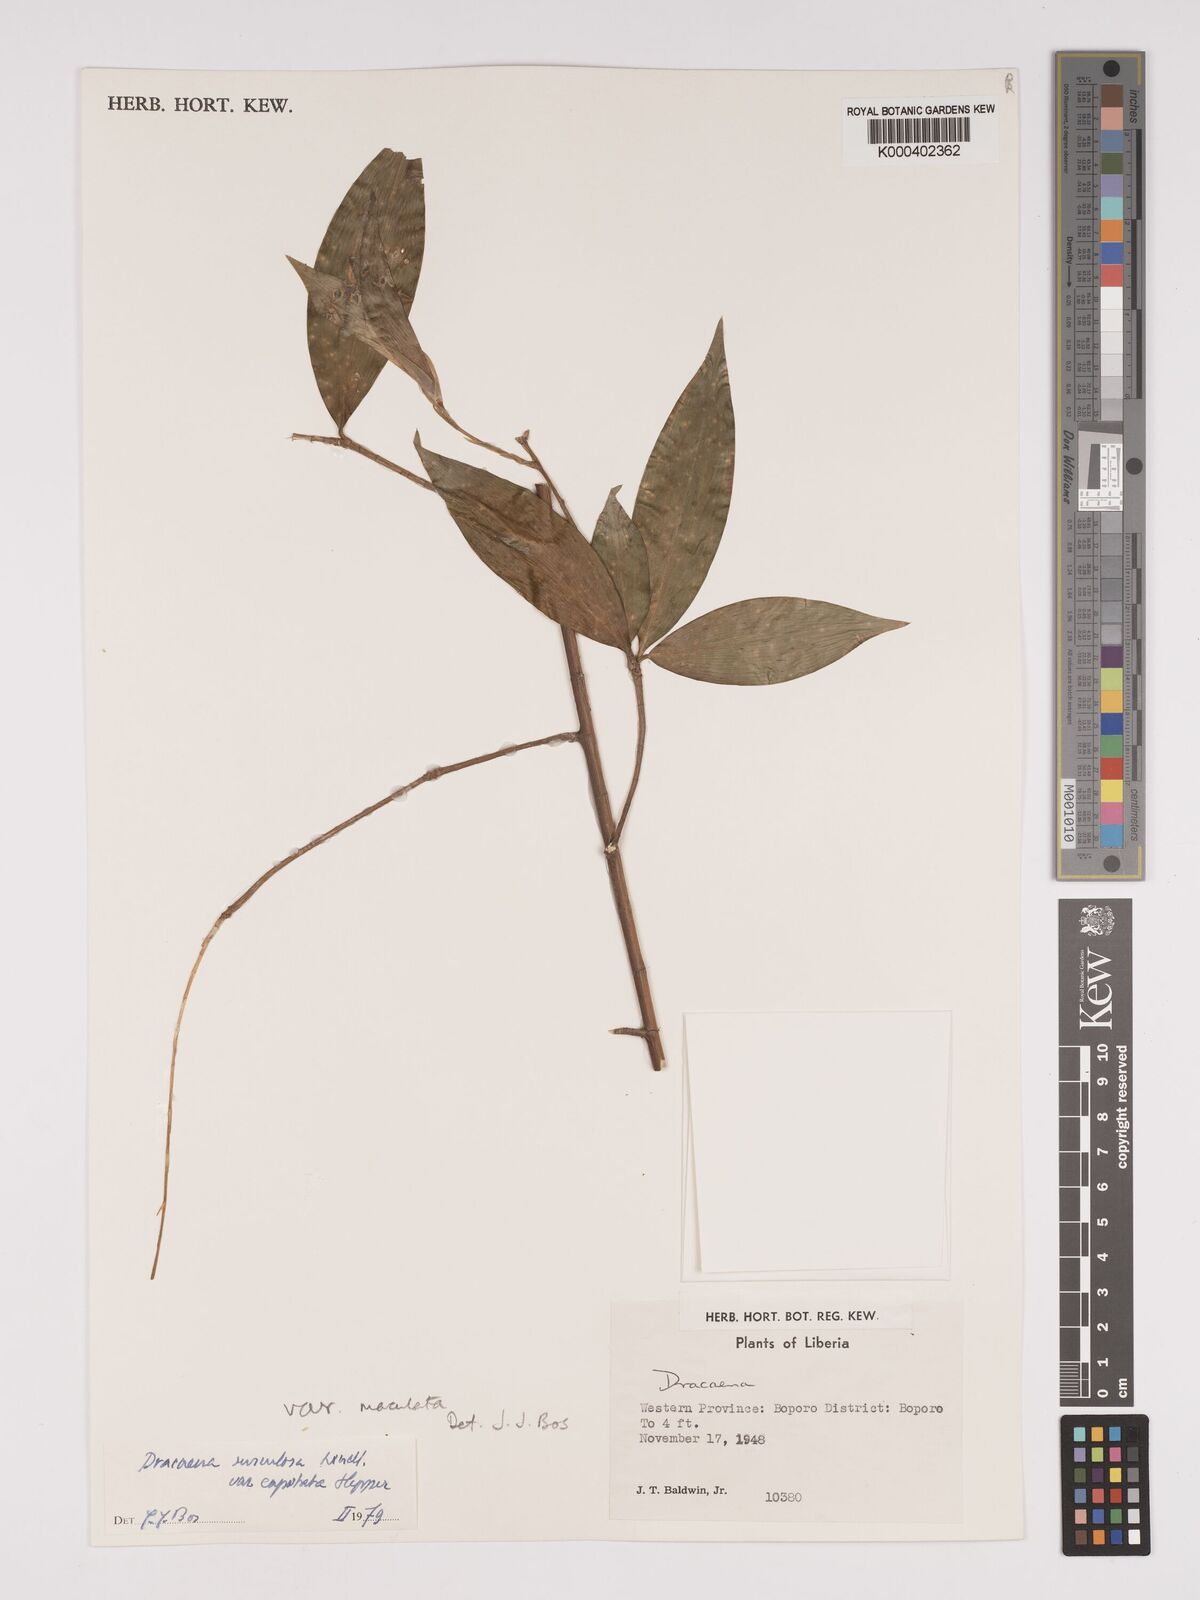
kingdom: Plantae
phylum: Tracheophyta
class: Liliopsida
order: Asparagales
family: Asparagaceae
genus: Dracaena
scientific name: Dracaena surculosa
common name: Spotted dracaena
